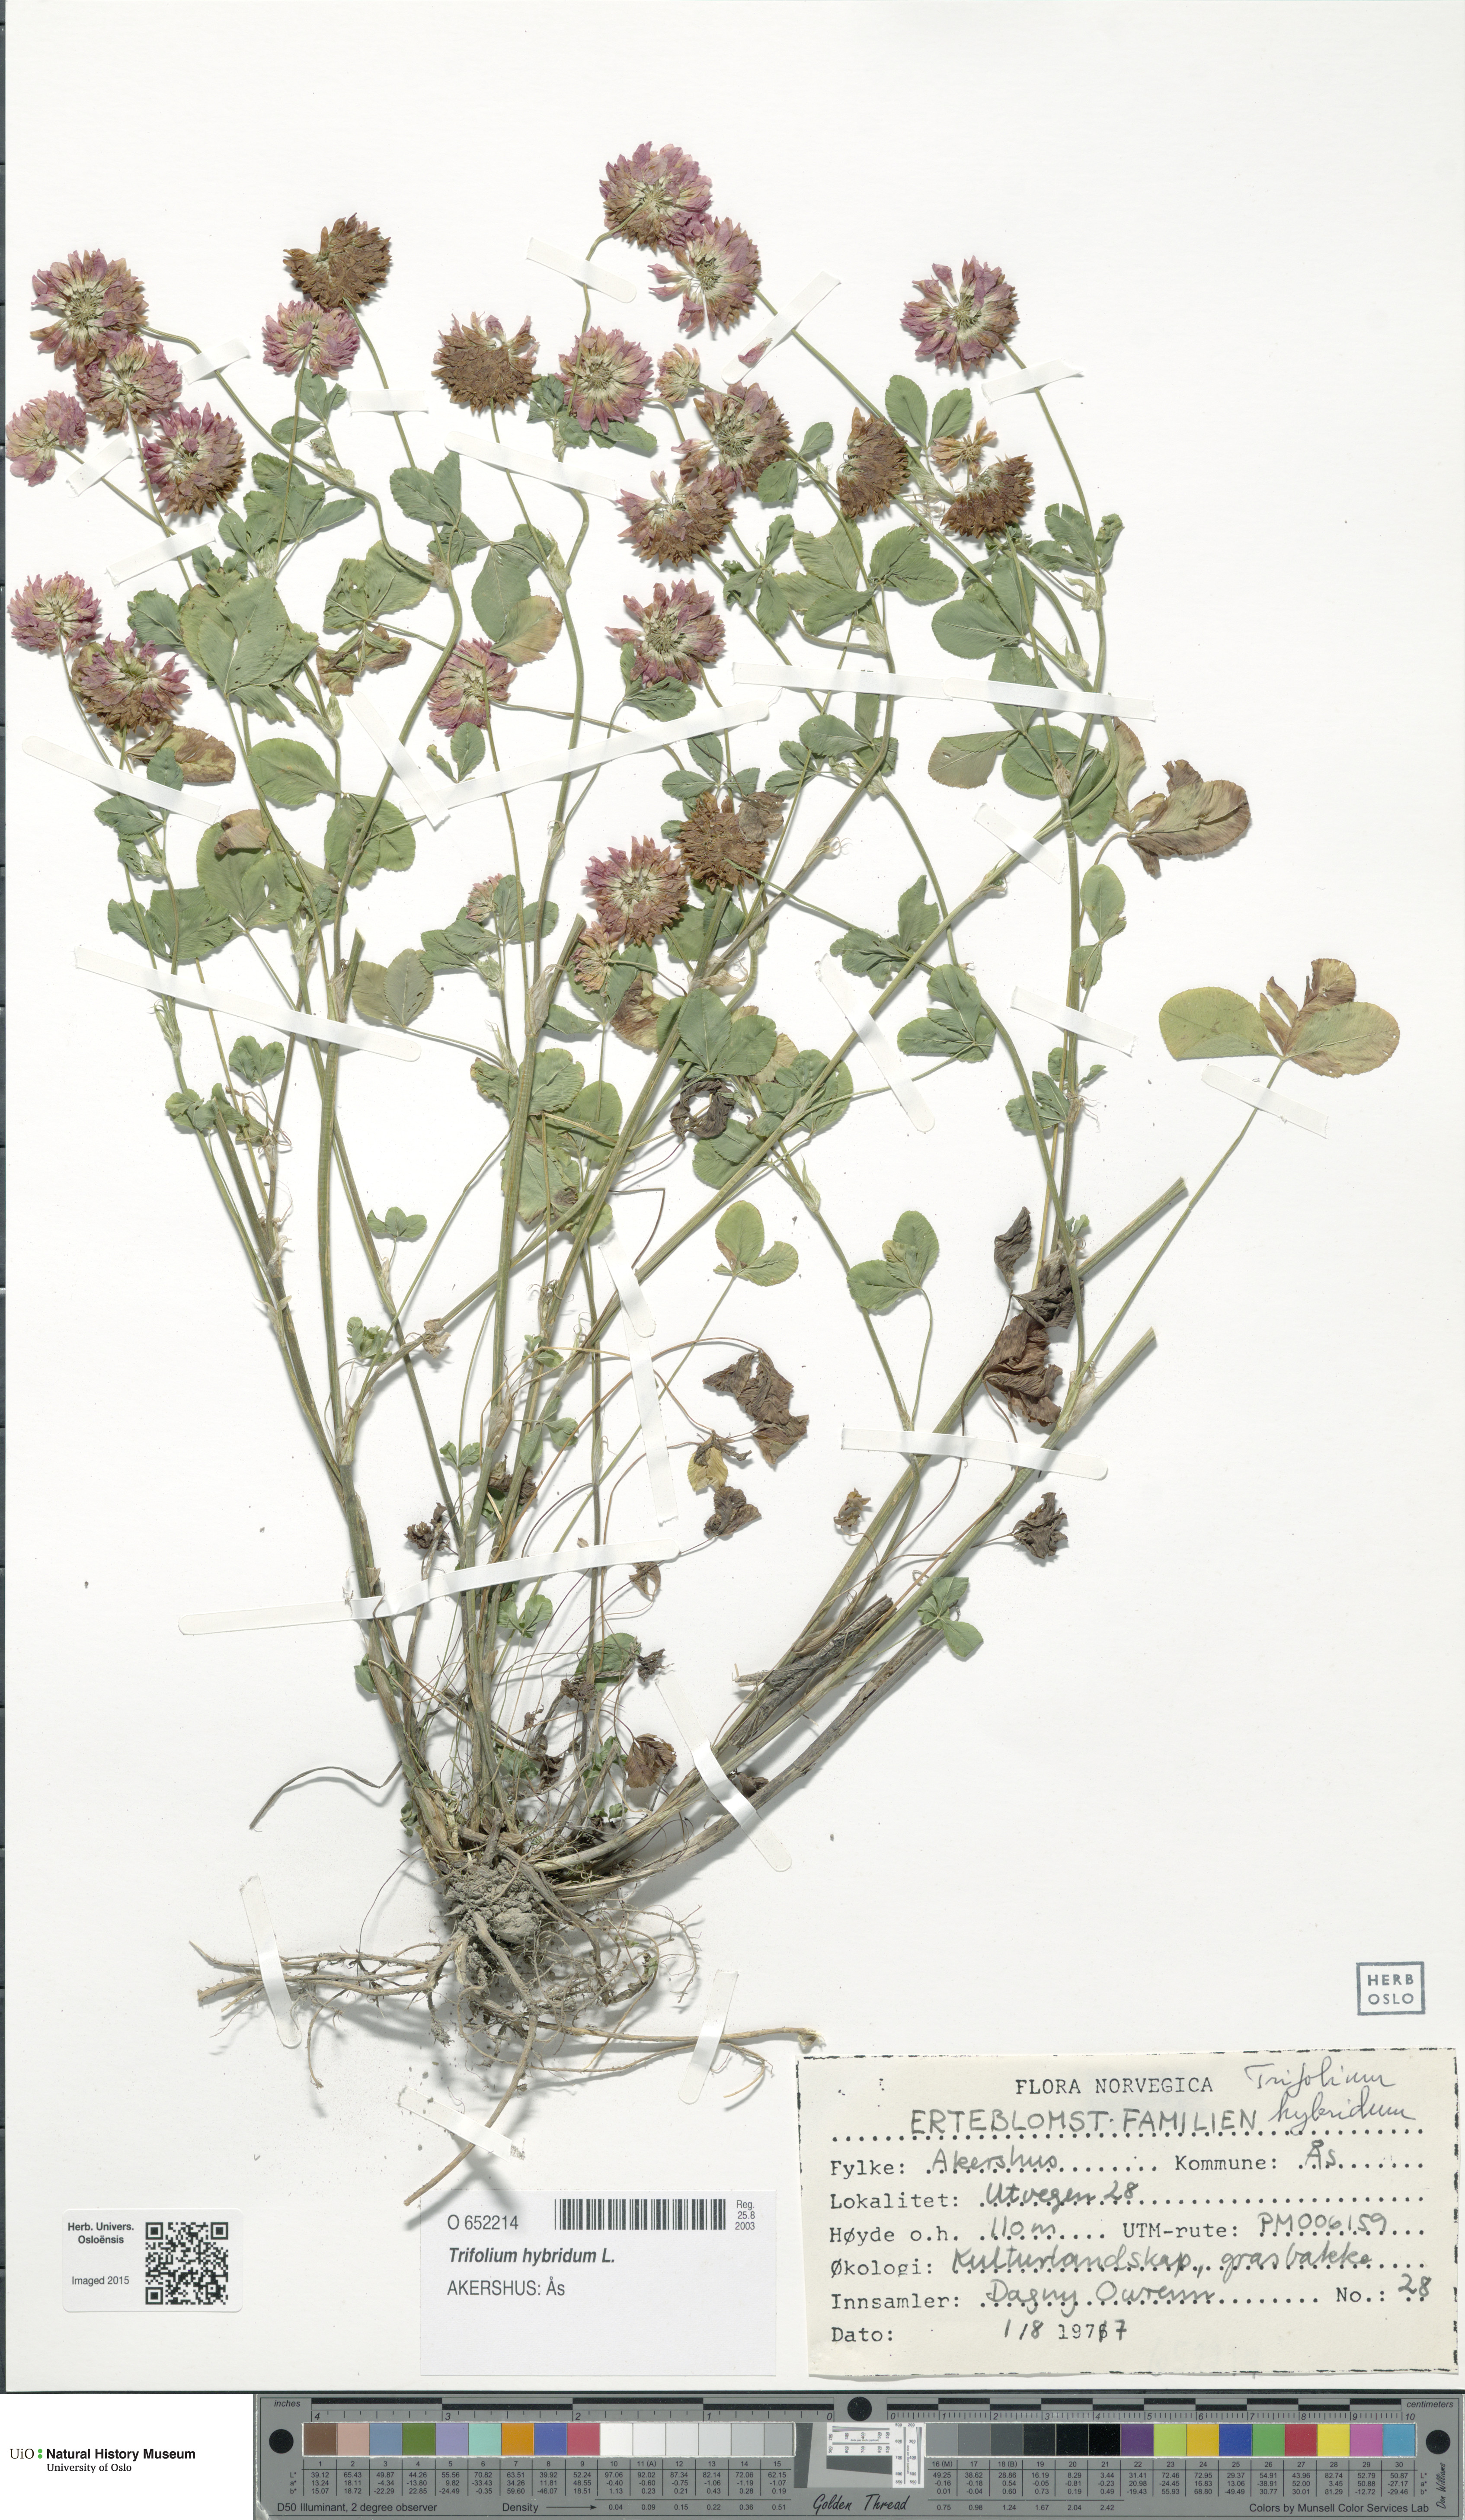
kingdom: Plantae
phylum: Tracheophyta
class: Magnoliopsida
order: Fabales
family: Fabaceae
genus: Trifolium
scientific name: Trifolium hybridum
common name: Alsike clover
